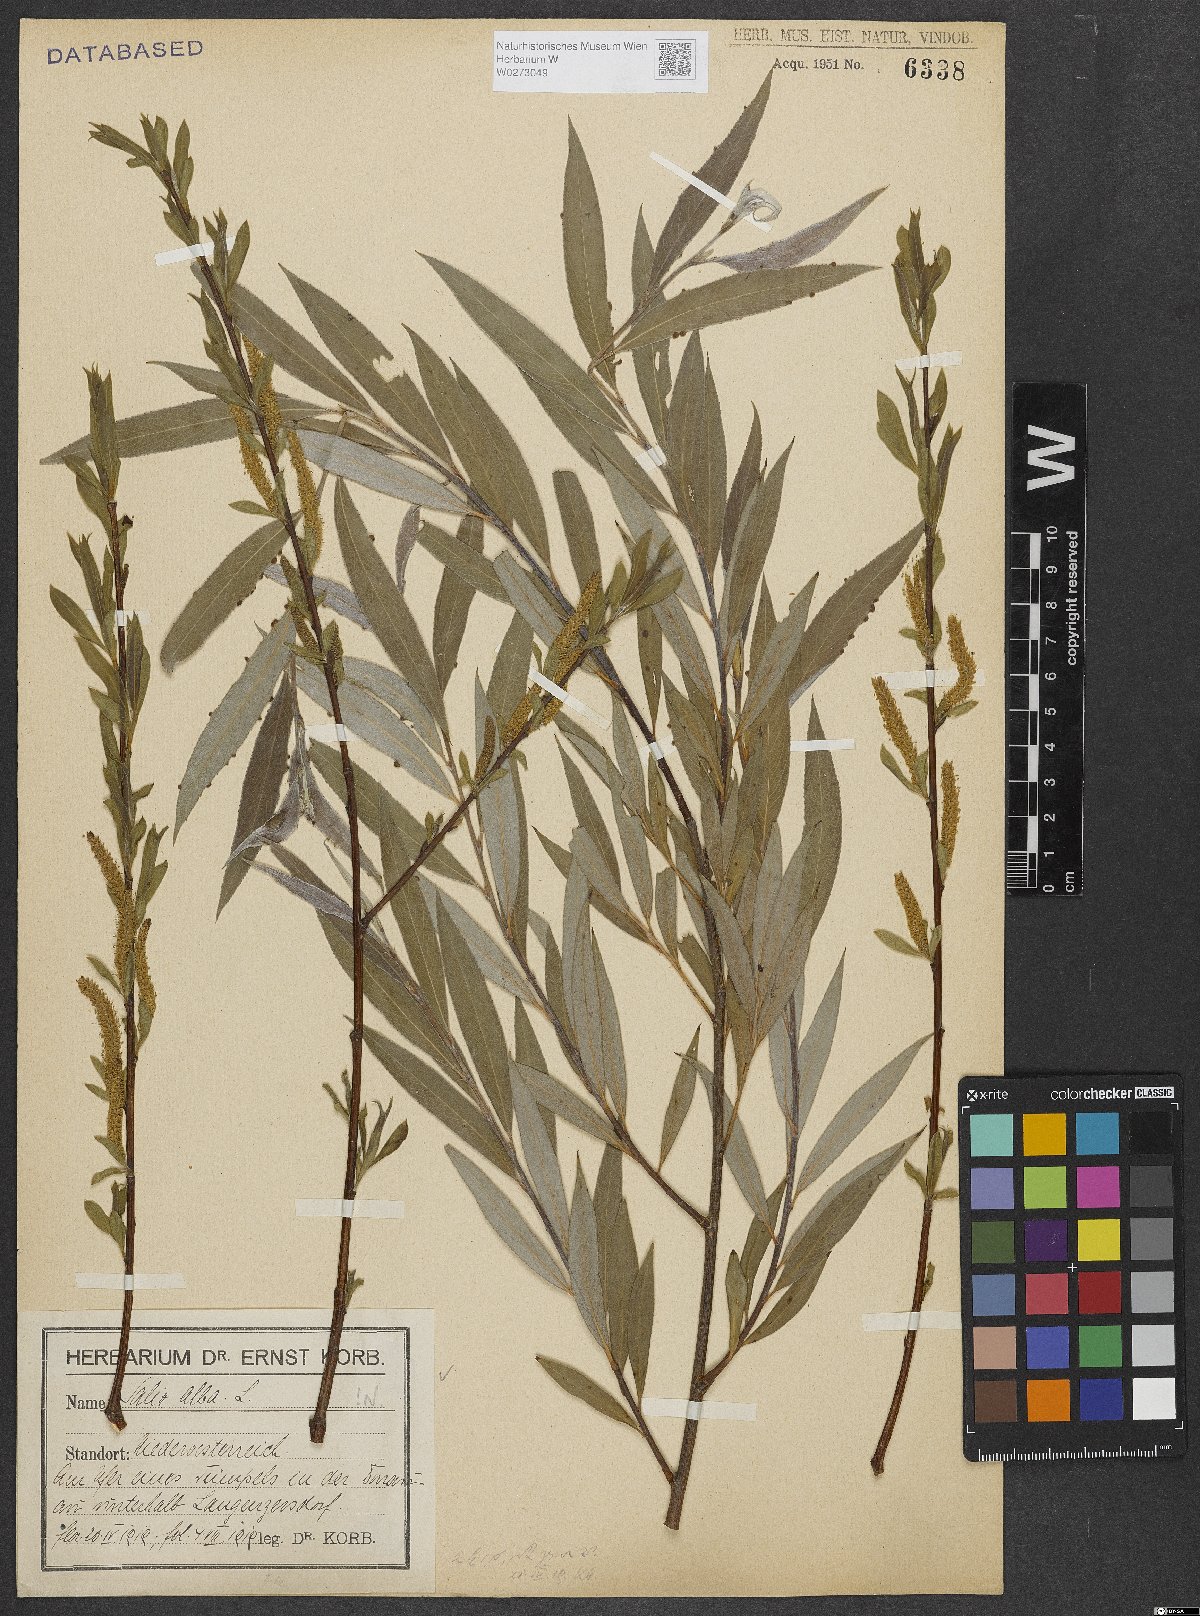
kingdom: Plantae
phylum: Tracheophyta
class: Magnoliopsida
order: Malpighiales
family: Salicaceae
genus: Salix
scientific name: Salix alba
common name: White willow
